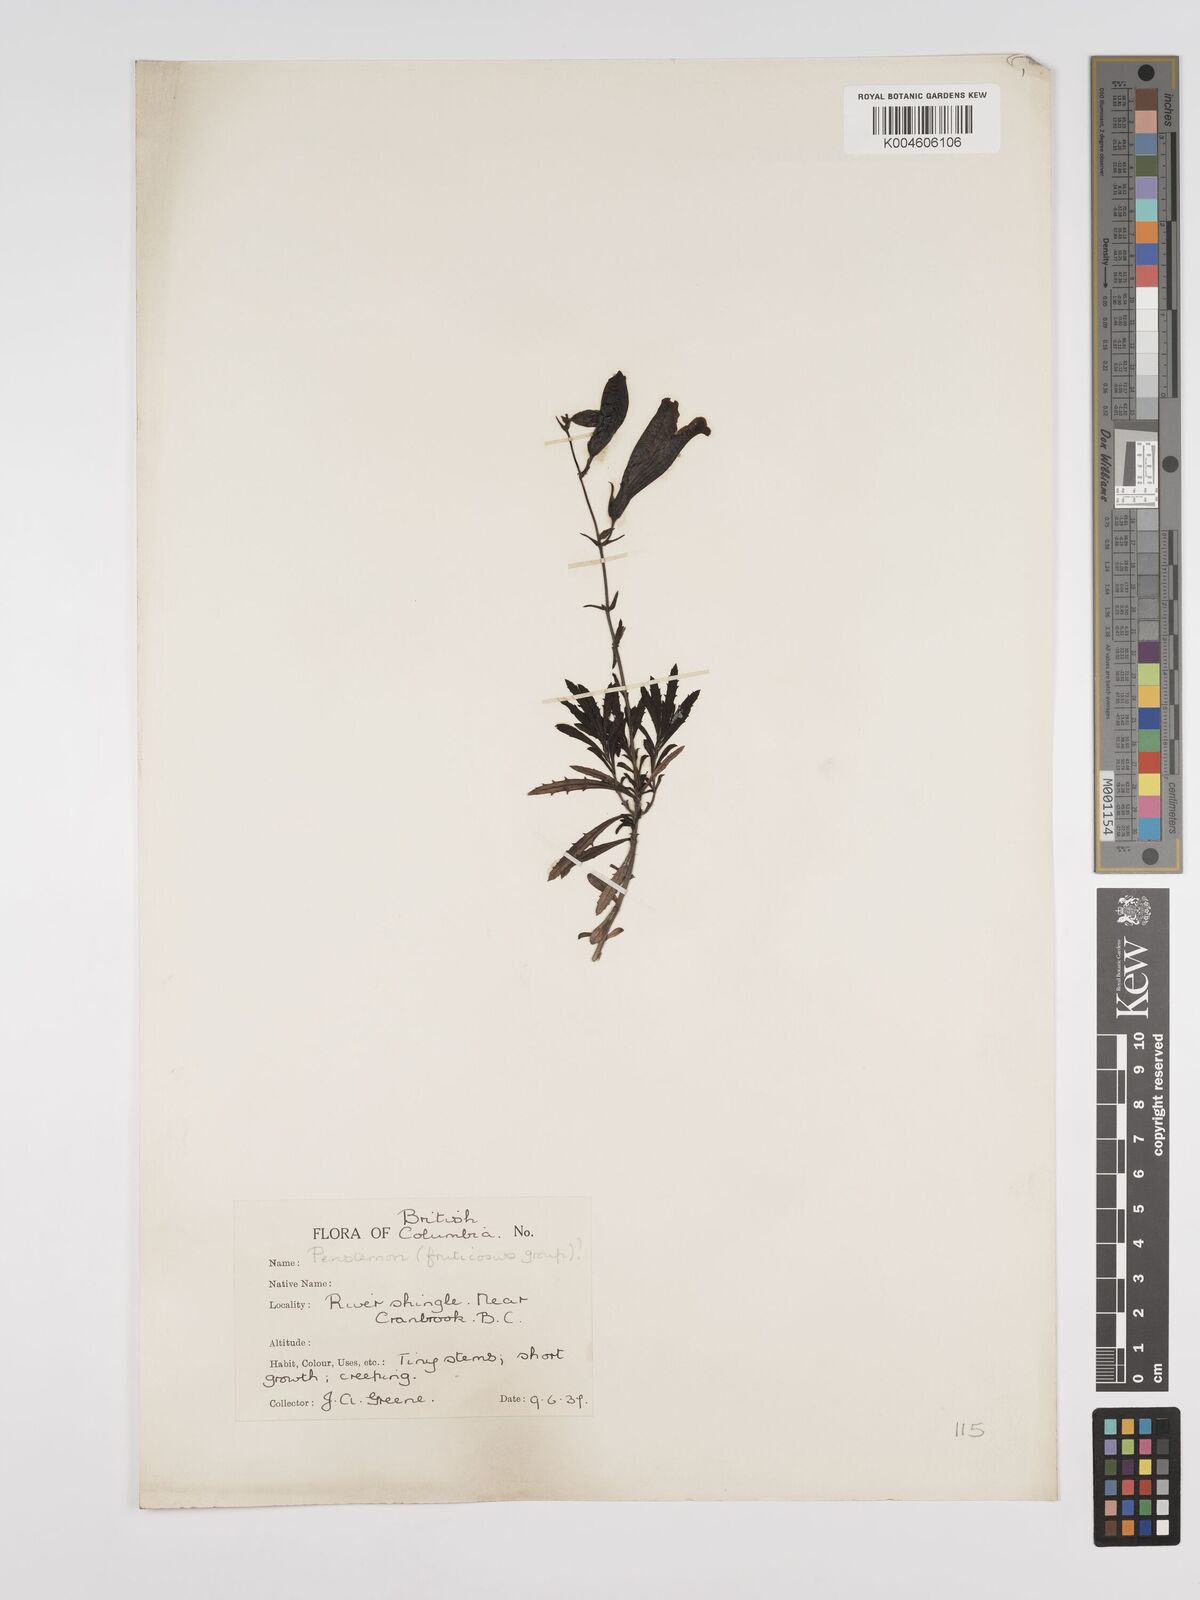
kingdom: Plantae
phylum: Tracheophyta
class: Magnoliopsida
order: Lamiales
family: Plantaginaceae
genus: Penstemon
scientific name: Penstemon
